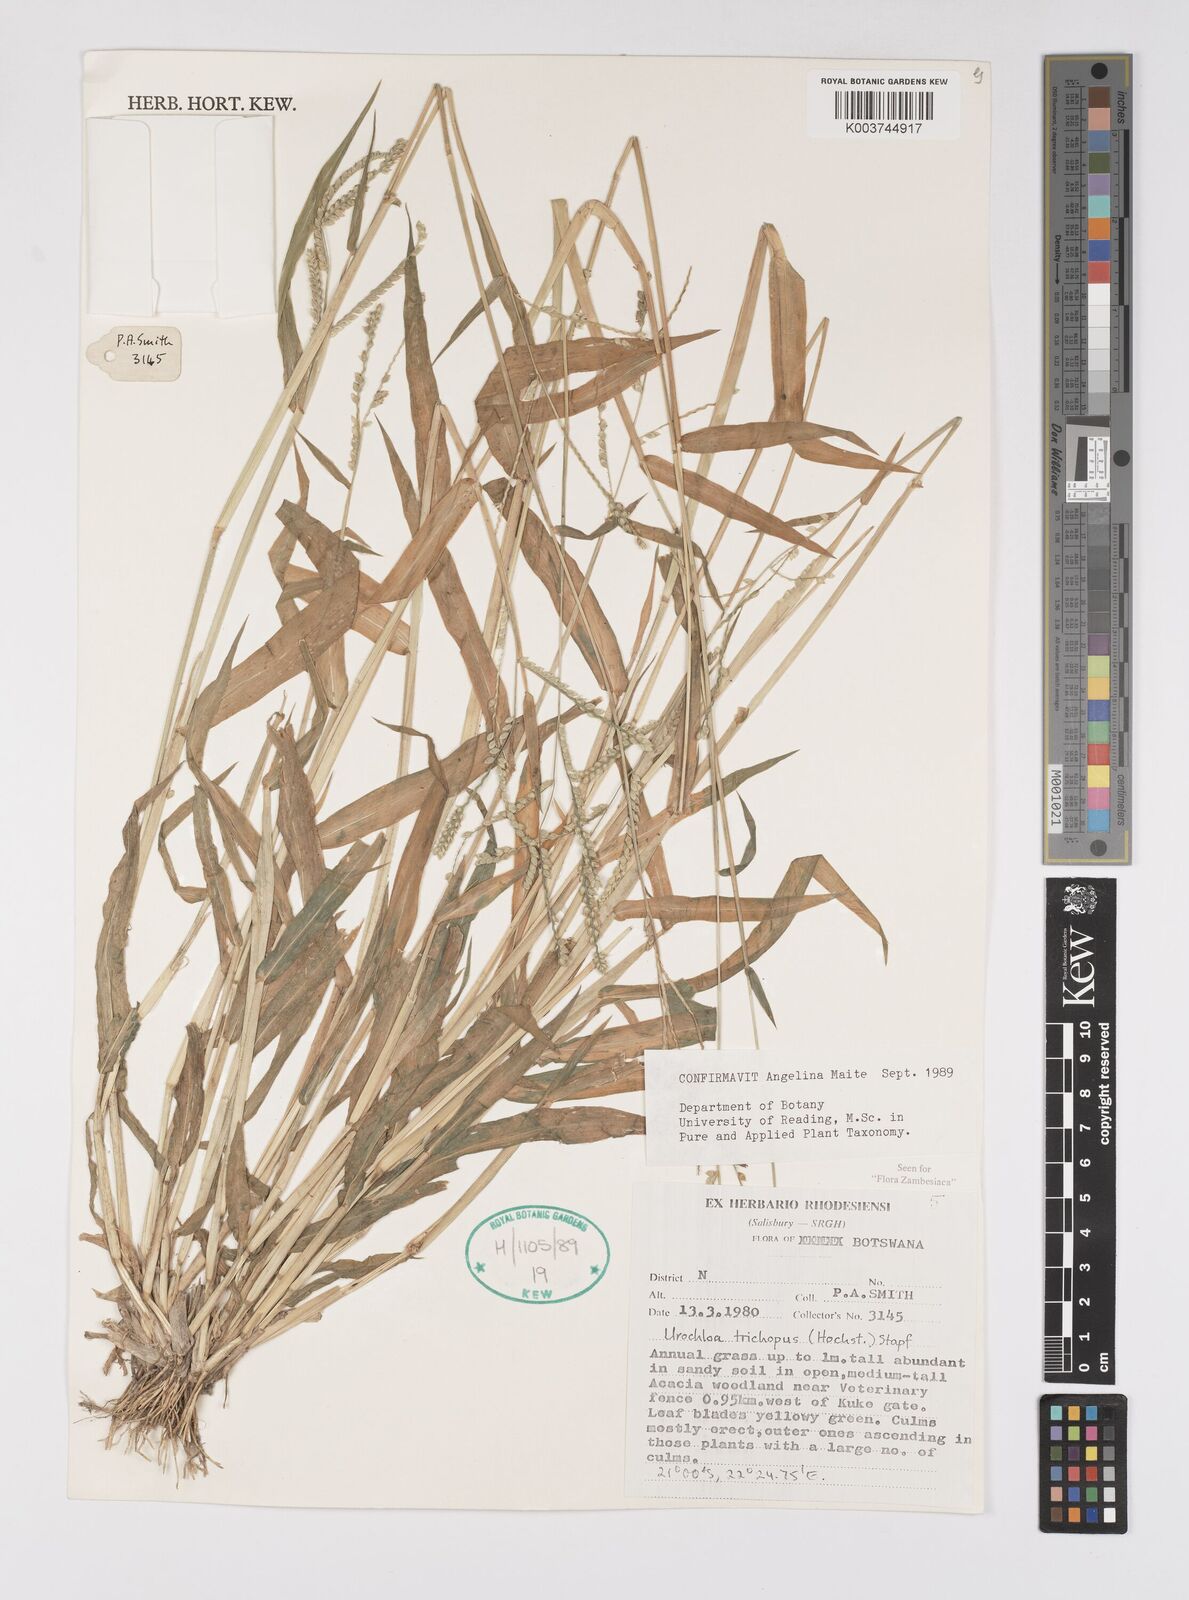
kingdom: Plantae
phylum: Tracheophyta
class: Liliopsida
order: Poales
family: Poaceae
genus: Urochloa
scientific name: Urochloa trichopus
